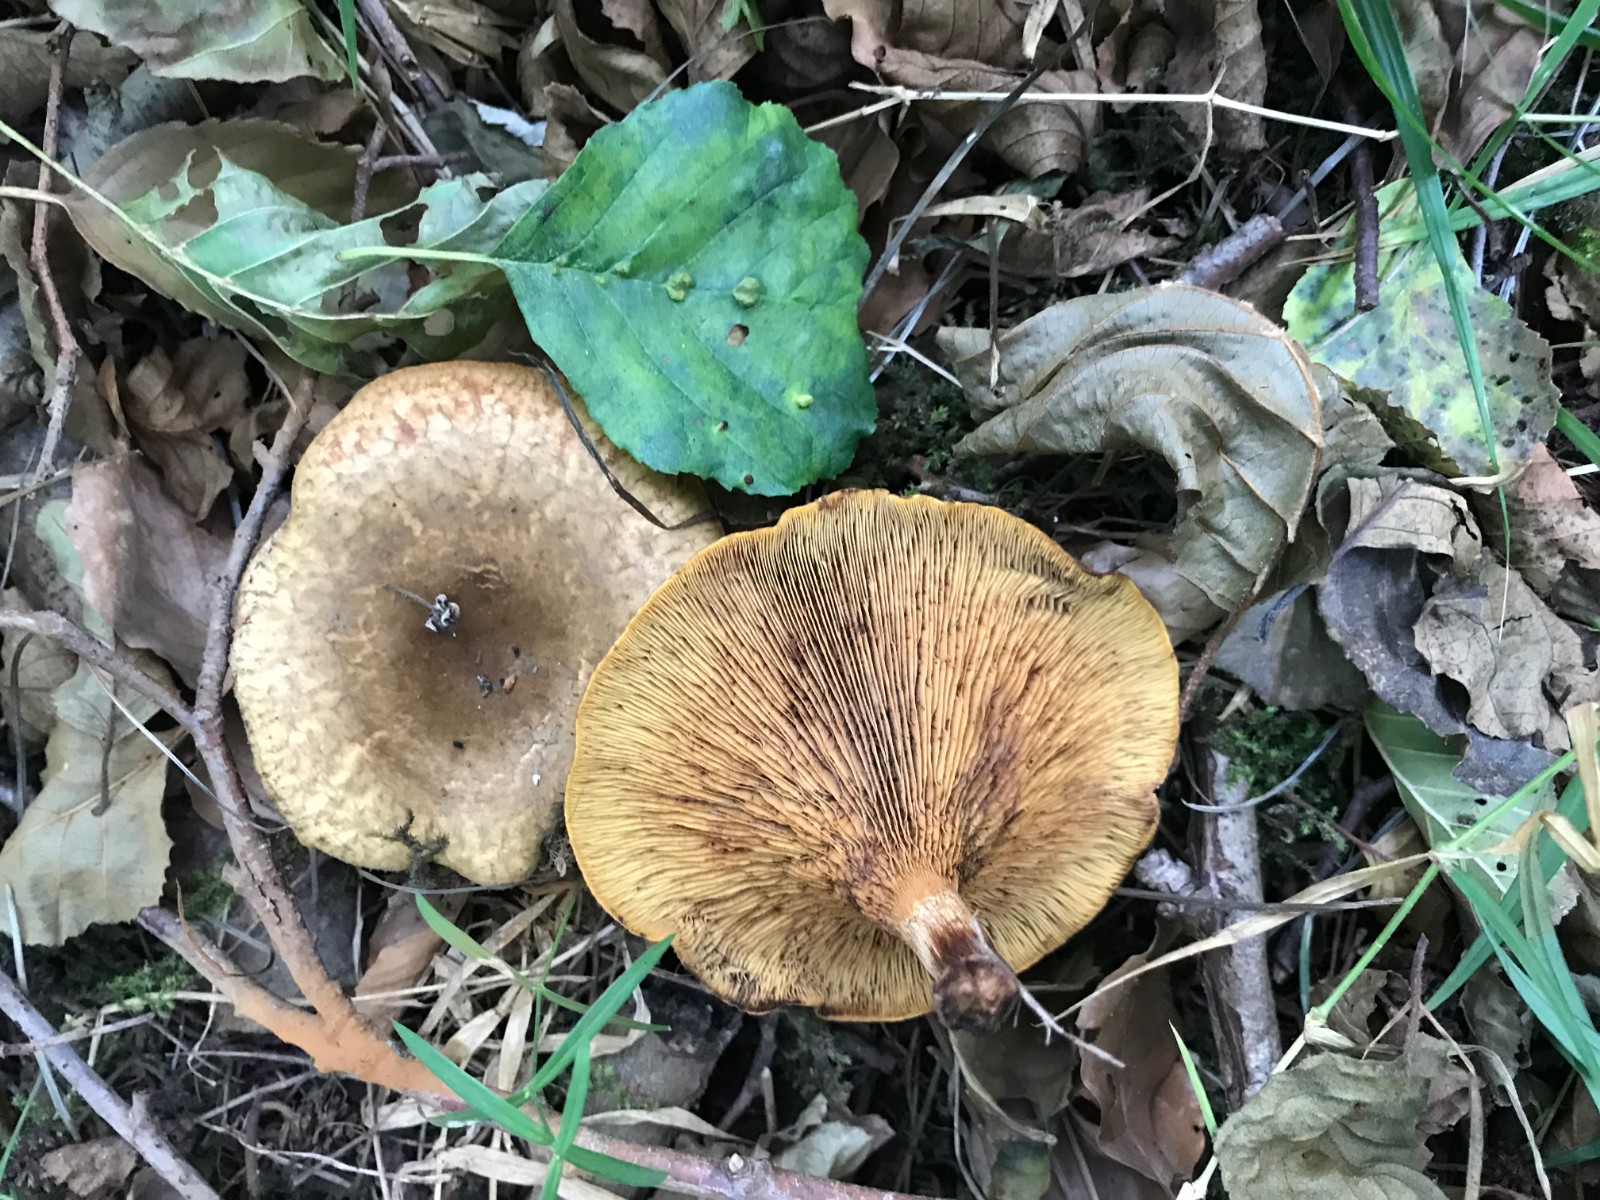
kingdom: Fungi
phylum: Basidiomycota
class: Agaricomycetes
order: Boletales
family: Paxillaceae
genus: Paxillus
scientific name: Paxillus rubicundulus
